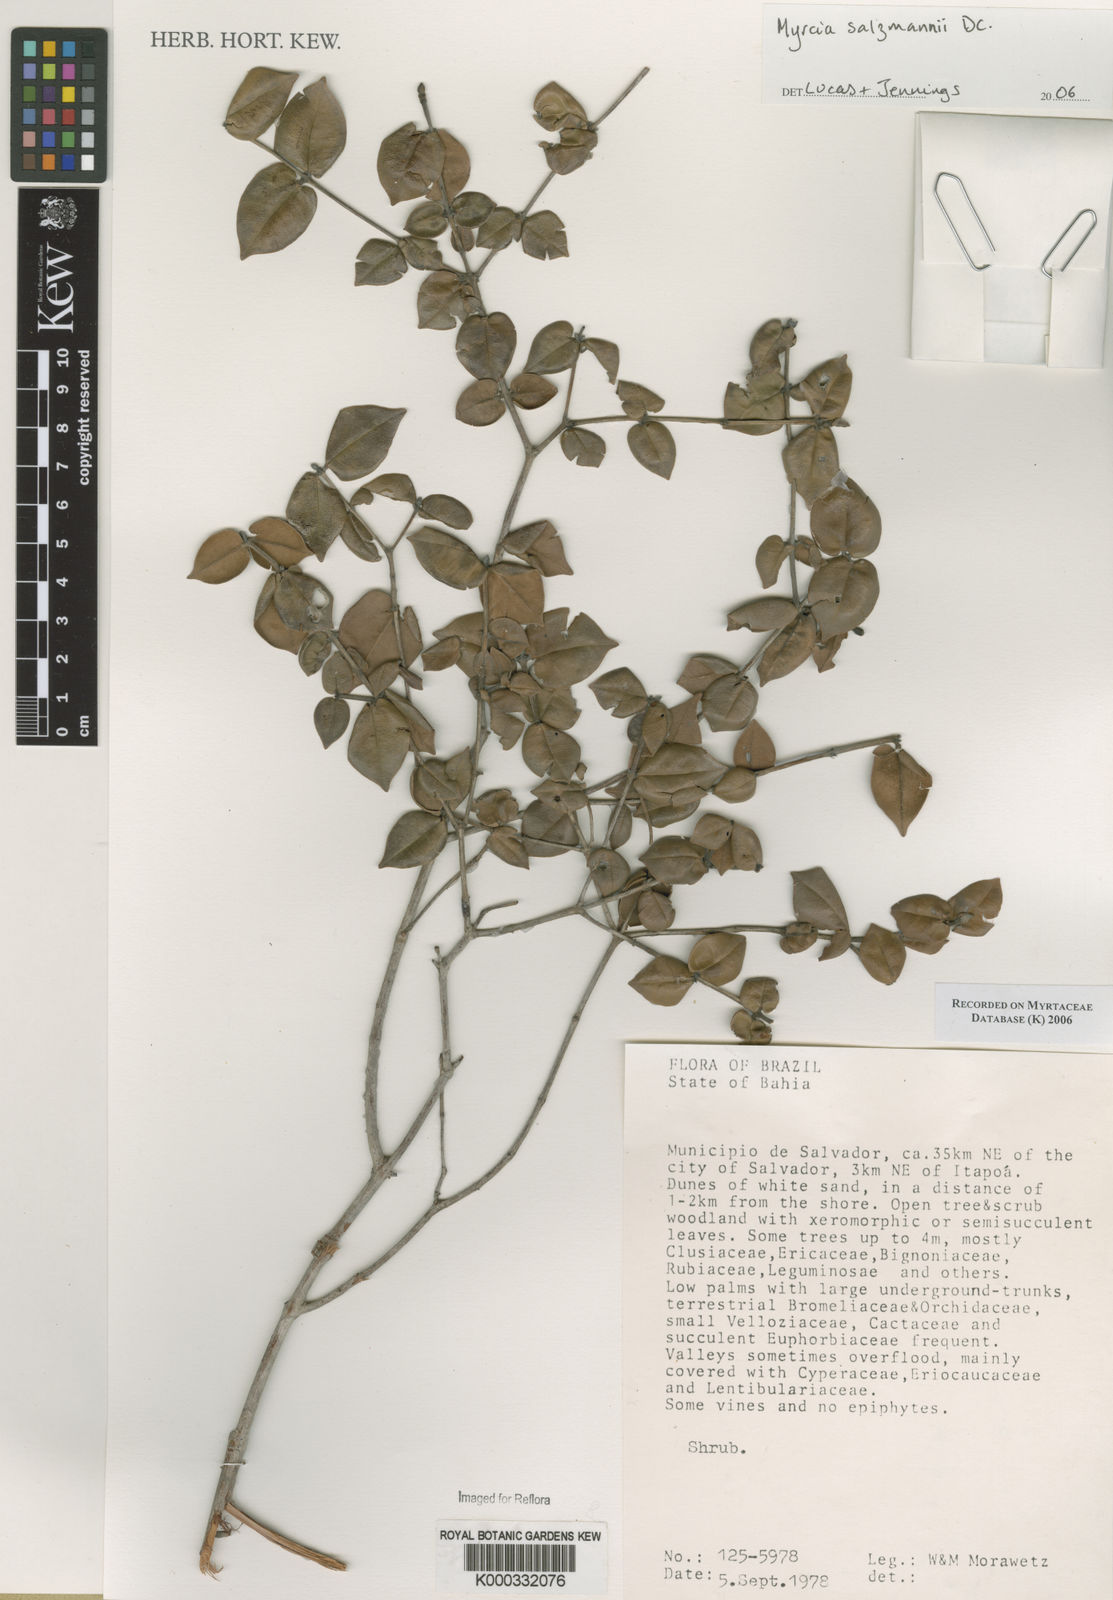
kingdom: Plantae
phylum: Tracheophyta
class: Magnoliopsida
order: Myrtales
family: Myrtaceae
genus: Myrcia
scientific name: Myrcia salzmannii
